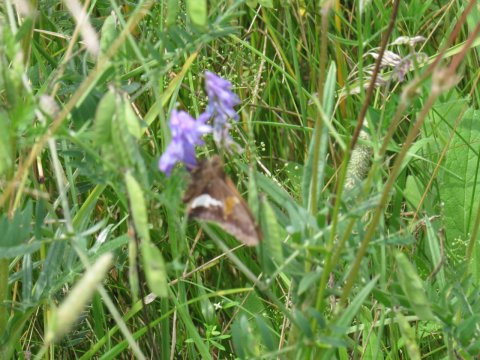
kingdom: Animalia
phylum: Arthropoda
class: Insecta
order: Lepidoptera
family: Hesperiidae
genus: Epargyreus
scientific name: Epargyreus clarus
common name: Silver-spotted Skipper
